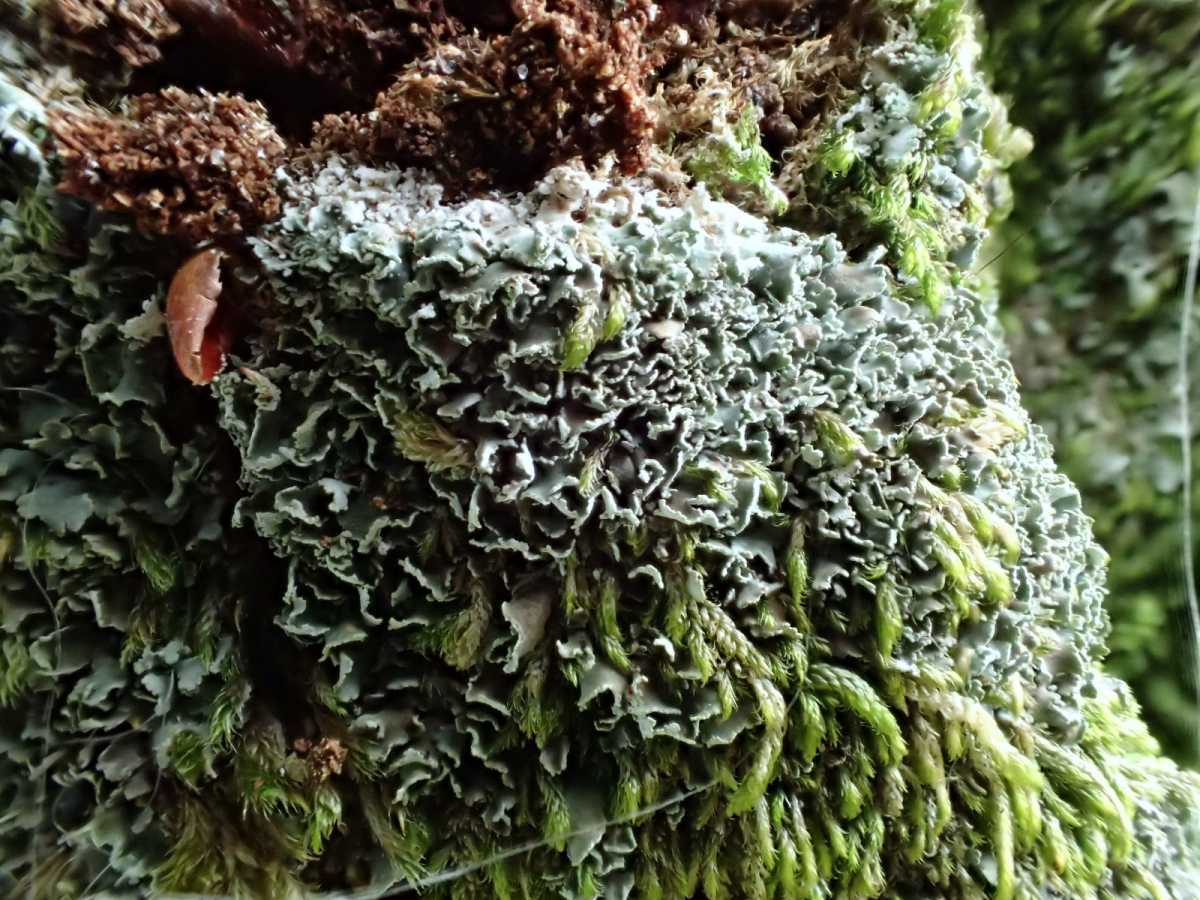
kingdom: Fungi
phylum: Ascomycota
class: Lecanoromycetes
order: Lecanorales
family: Cladoniaceae
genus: Cladonia
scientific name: Cladonia
